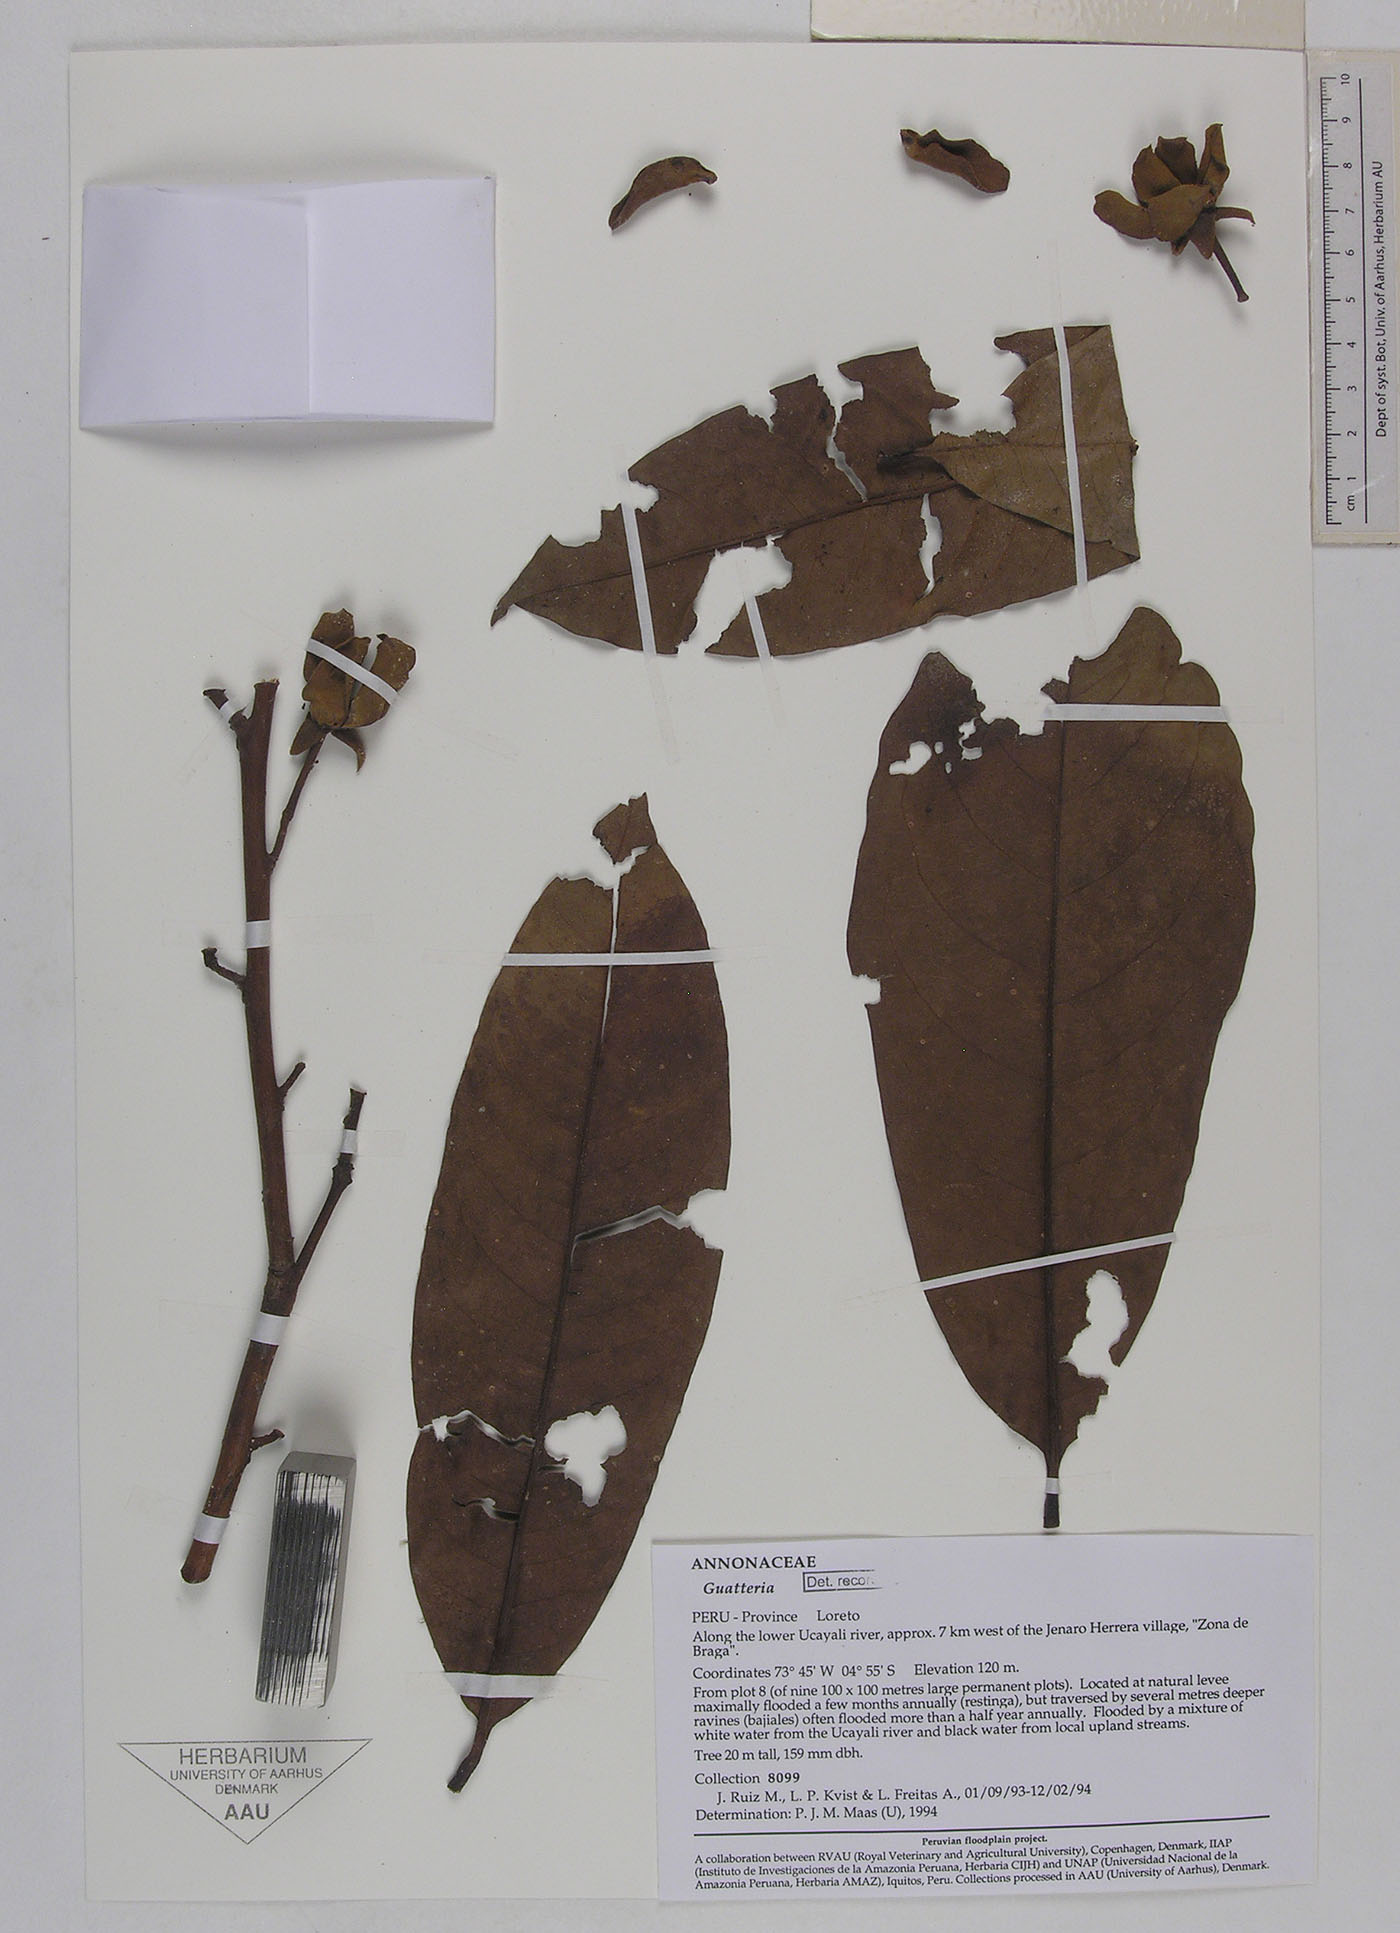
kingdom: Plantae
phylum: Tracheophyta
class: Magnoliopsida
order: Magnoliales
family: Annonaceae
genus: Guatteria
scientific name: Guatteria spectabilis
